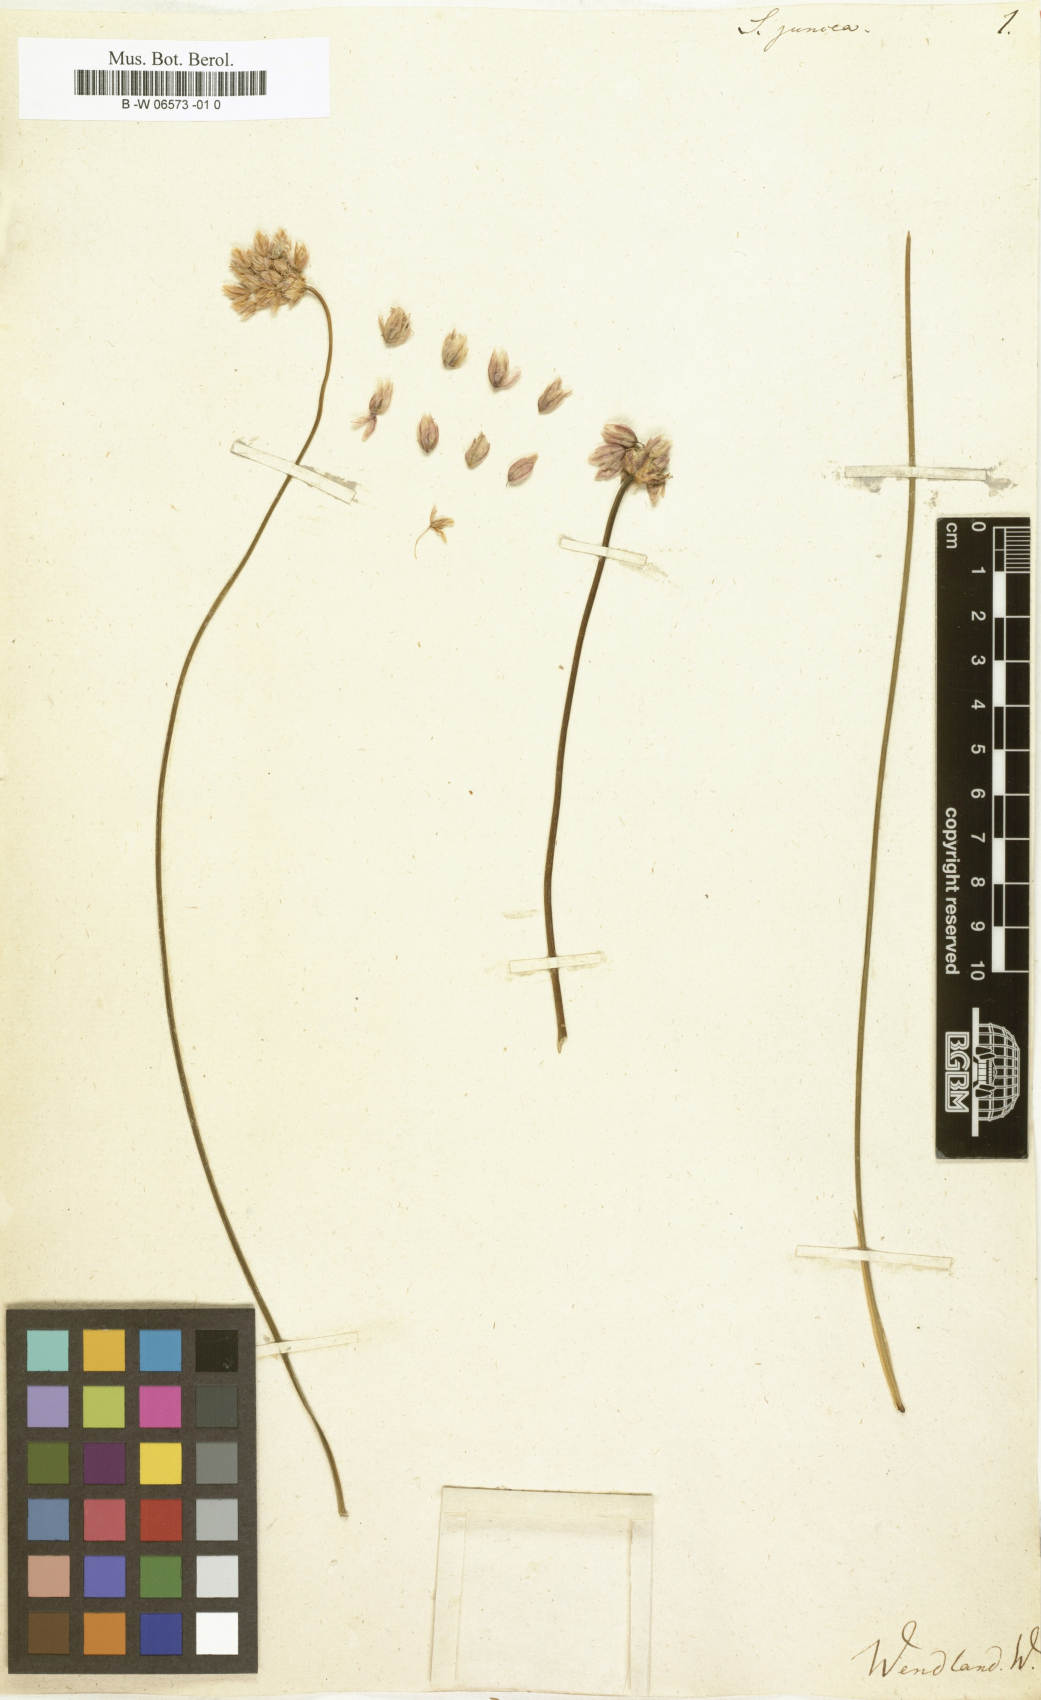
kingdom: Plantae
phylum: Tracheophyta
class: Liliopsida
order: Asparagales
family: Asparagaceae
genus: Sowerbaea
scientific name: Sowerbaea juncea
